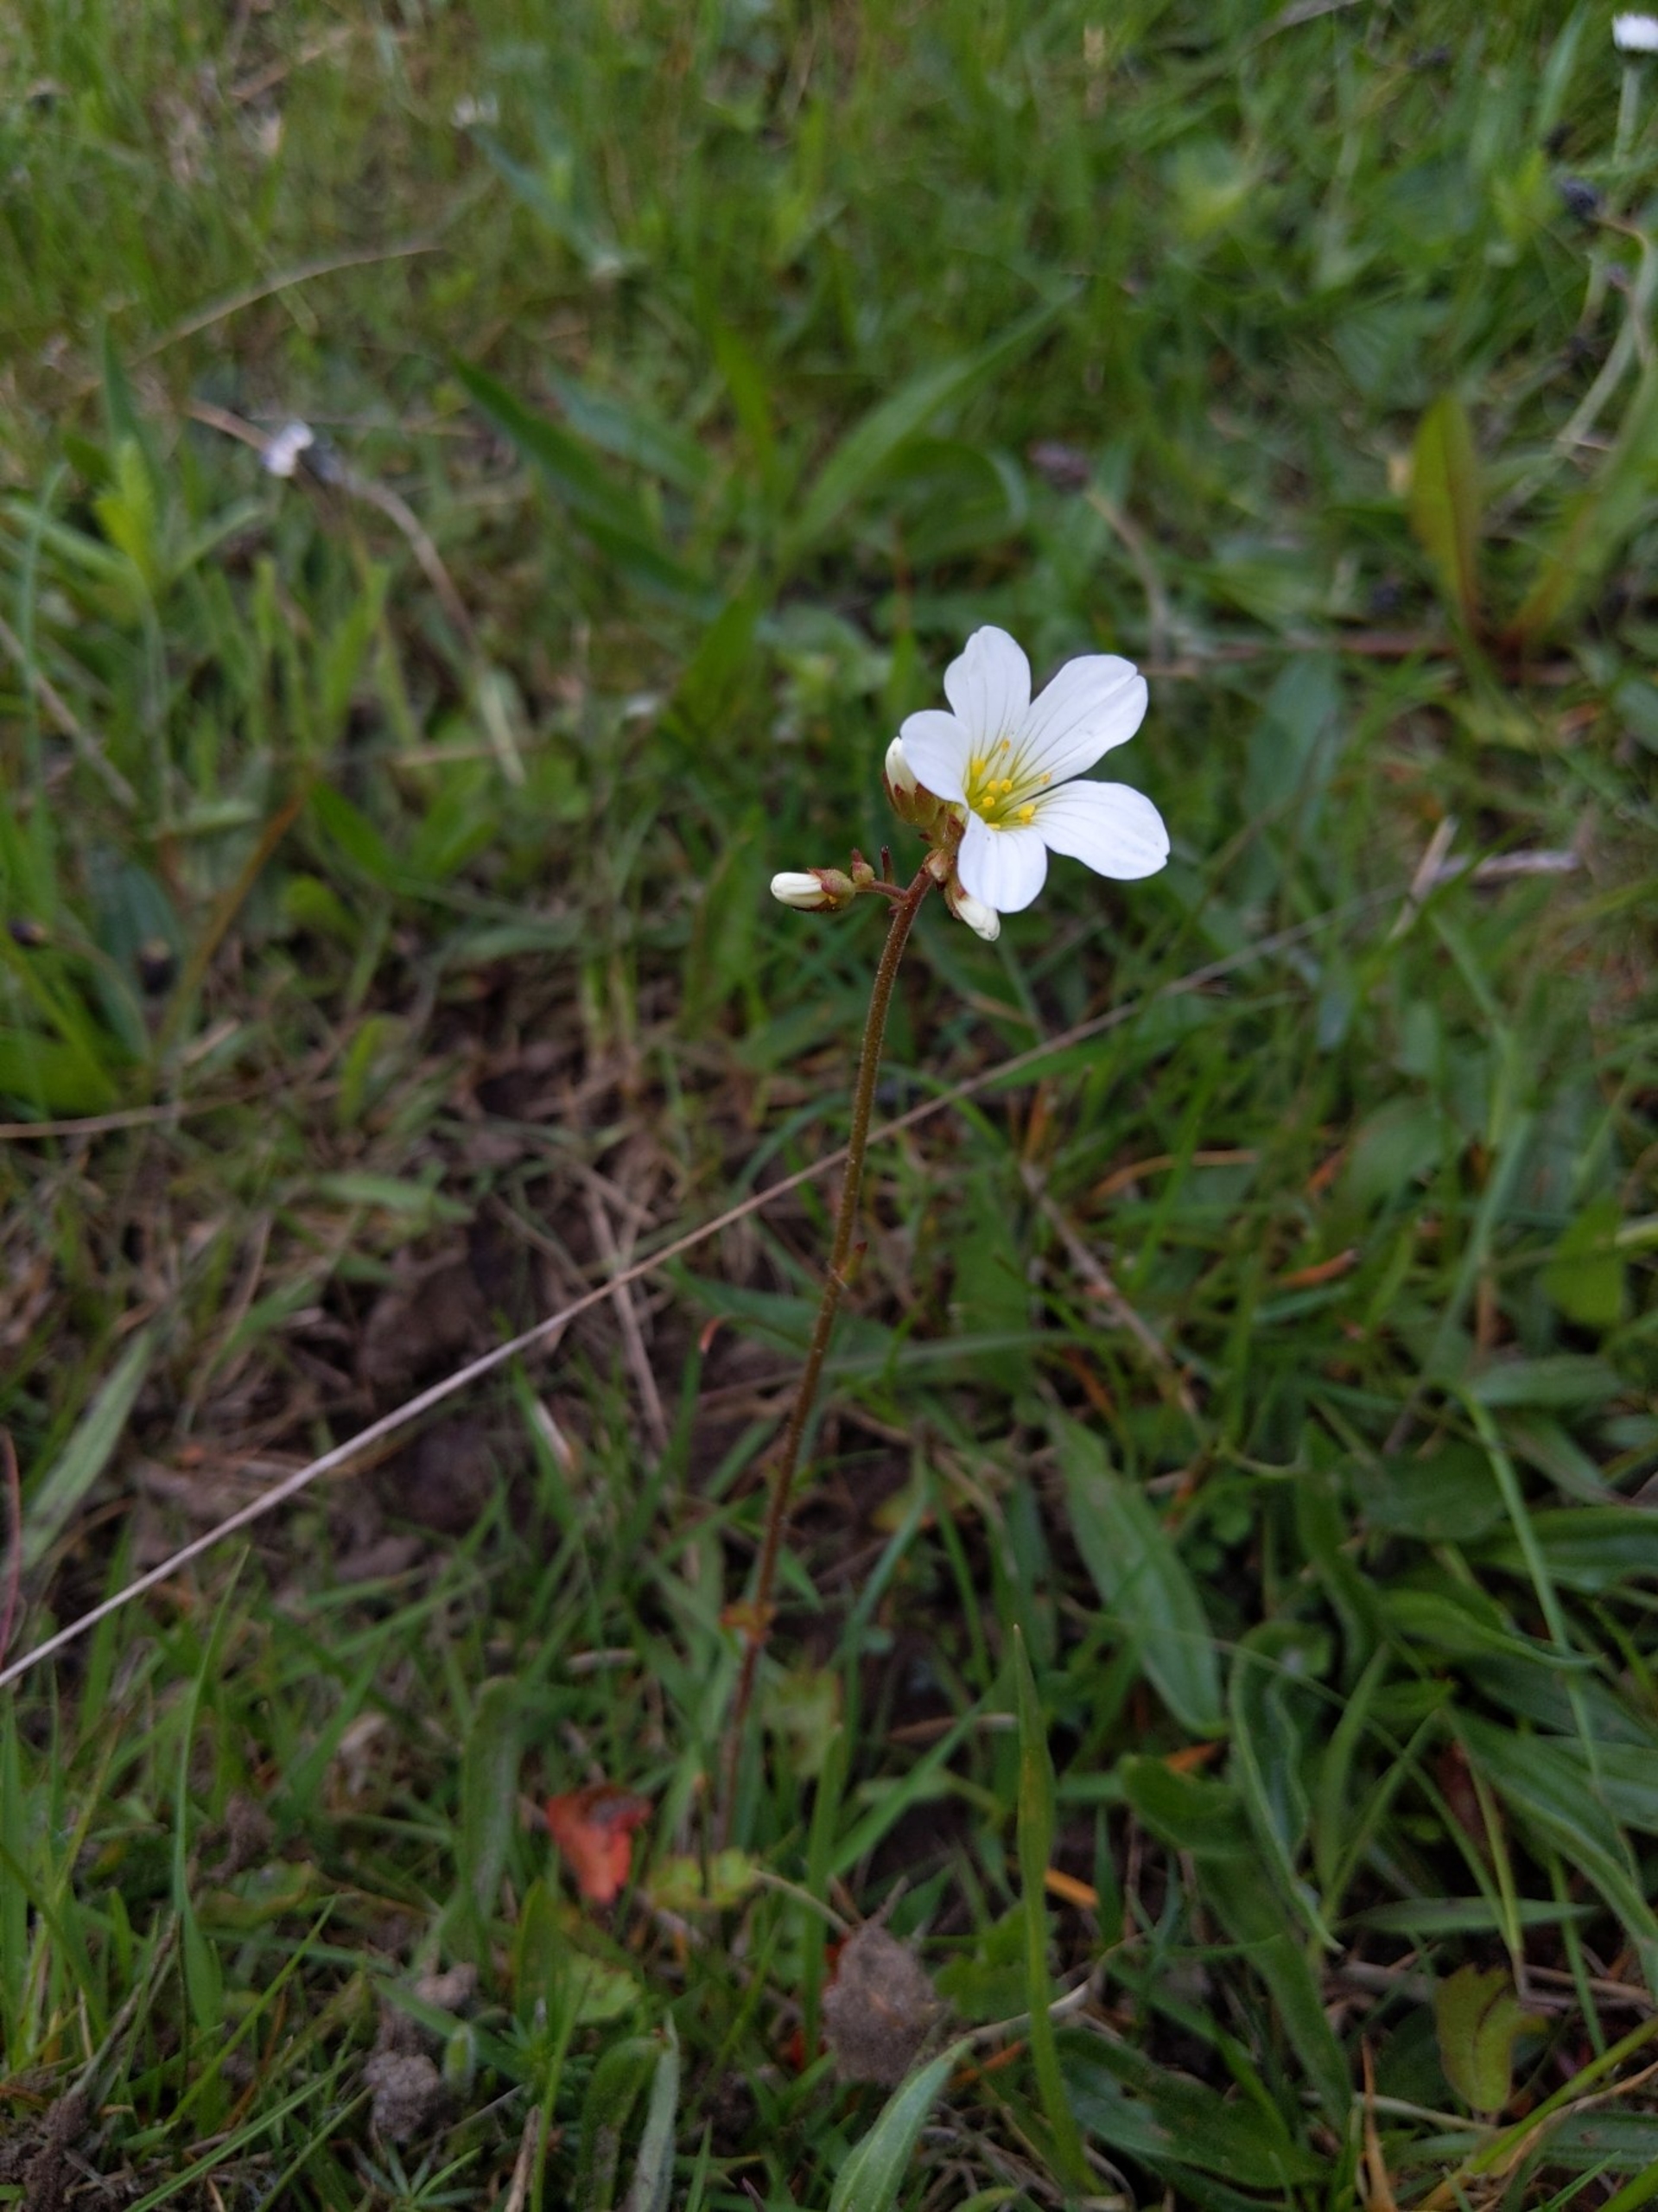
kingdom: Plantae
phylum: Tracheophyta
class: Magnoliopsida
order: Saxifragales
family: Saxifragaceae
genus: Saxifraga
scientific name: Saxifraga granulata
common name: Kornet stenbræk
